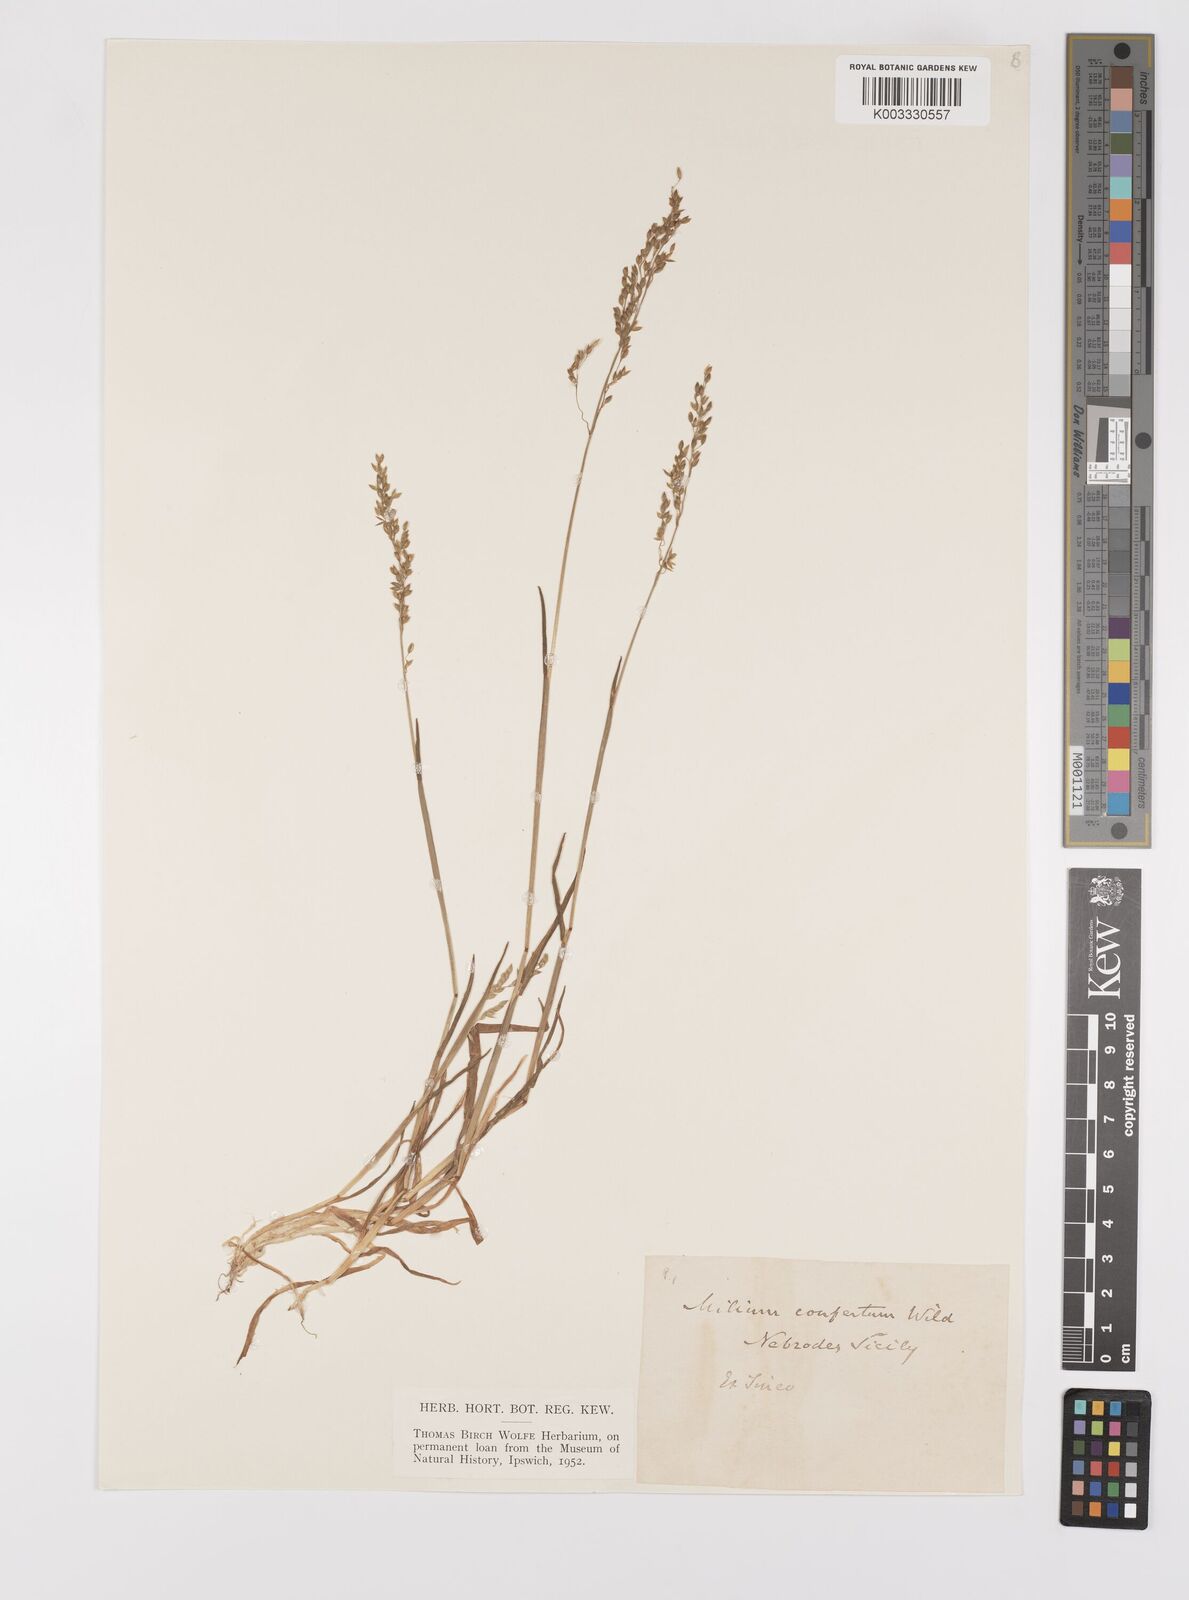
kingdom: Plantae
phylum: Tracheophyta
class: Liliopsida
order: Poales
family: Poaceae
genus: Milium
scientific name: Milium vernale
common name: Early millet
